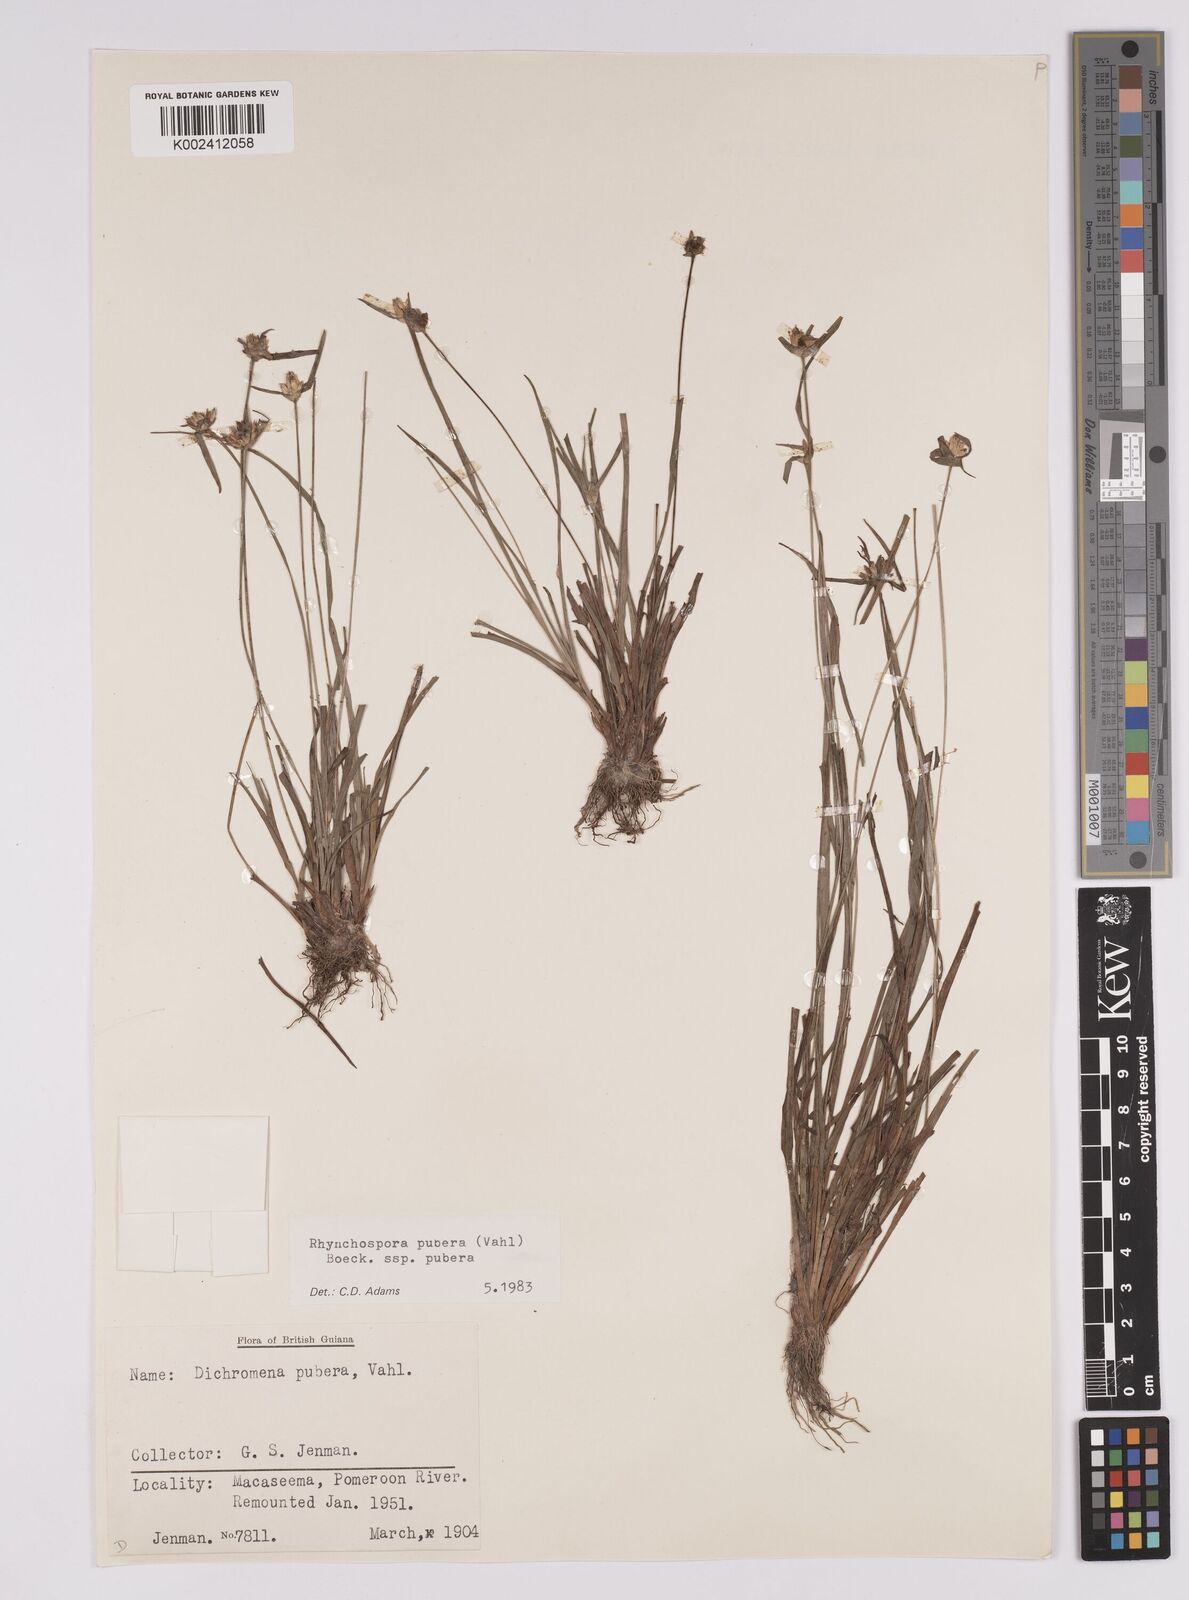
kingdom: Plantae
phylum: Tracheophyta
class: Liliopsida
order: Poales
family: Cyperaceae
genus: Rhynchospora
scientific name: Rhynchospora pubera
